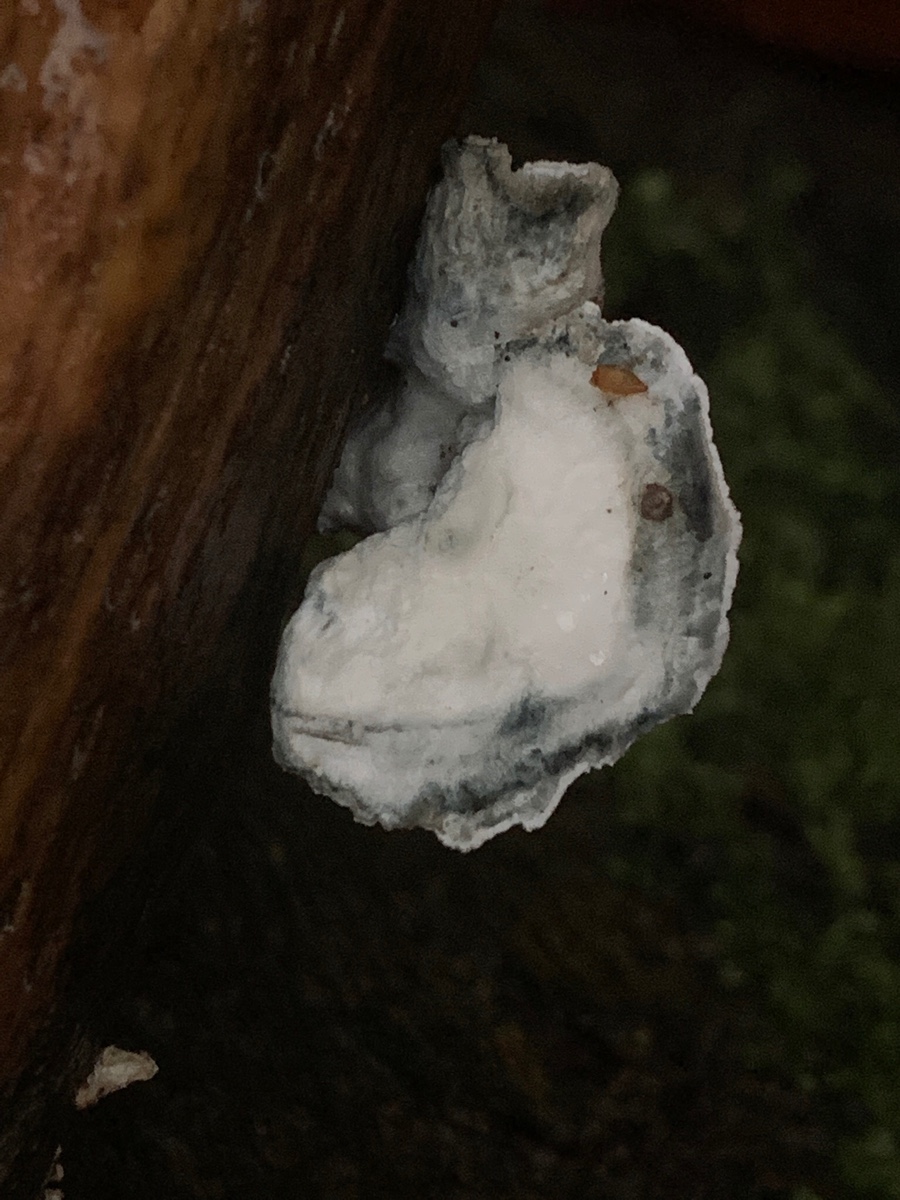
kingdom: Fungi
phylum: Basidiomycota
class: Agaricomycetes
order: Polyporales
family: Polyporaceae
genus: Cyanosporus
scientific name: Cyanosporus alni
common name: blegblå kødporesvamp
